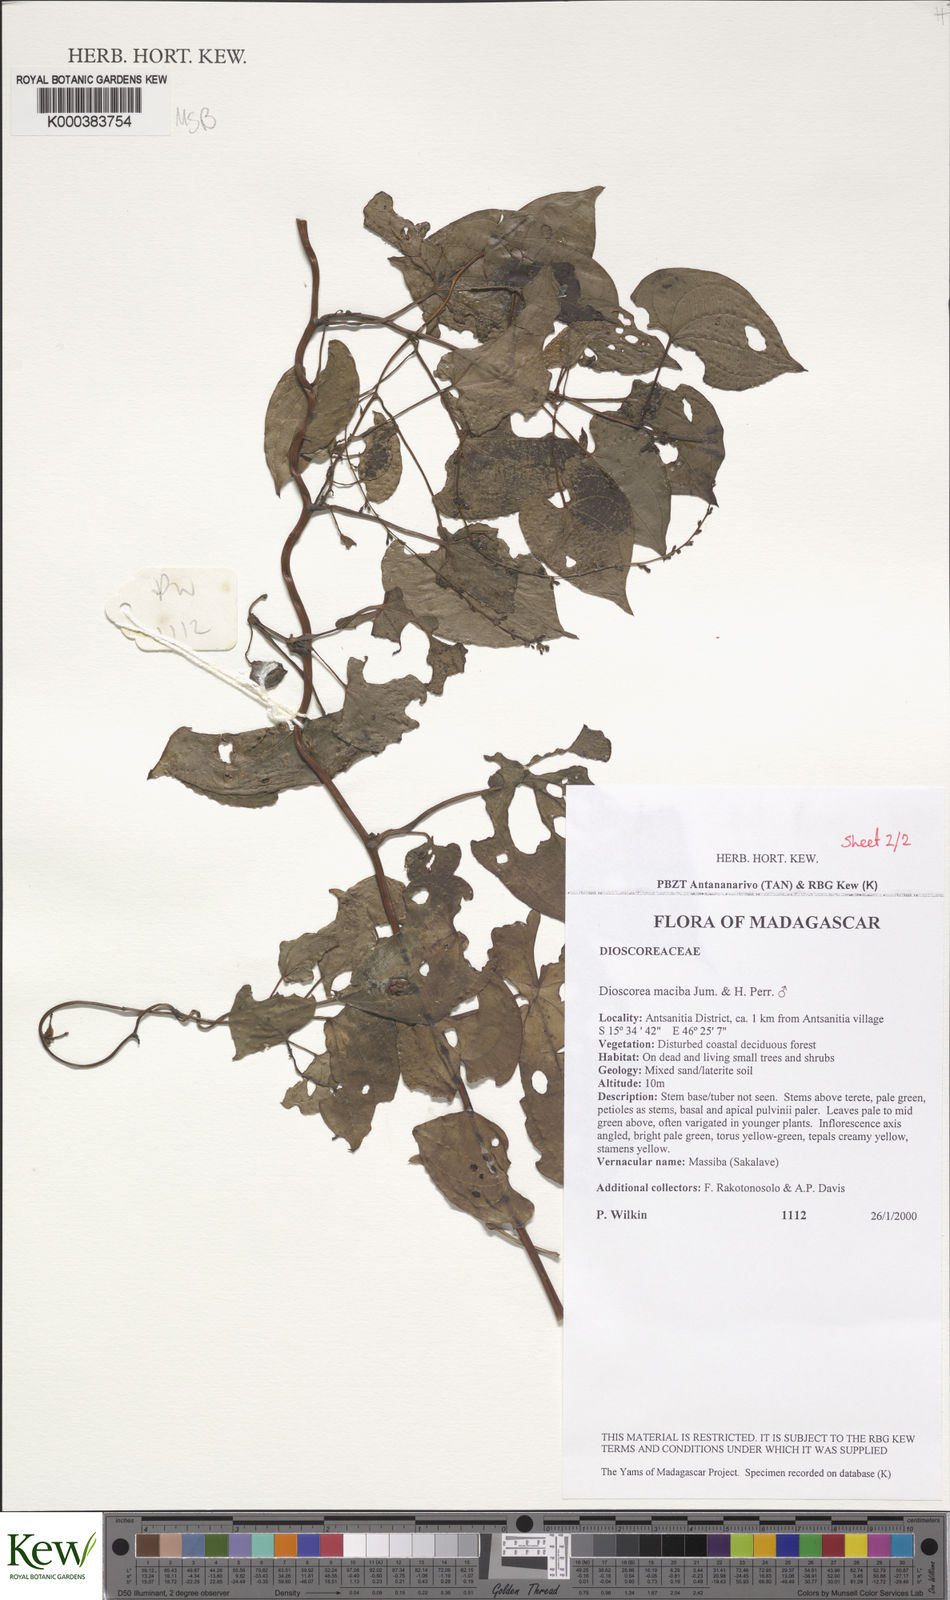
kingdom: Plantae
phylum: Tracheophyta
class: Liliopsida
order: Dioscoreales
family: Dioscoreaceae
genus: Dioscorea
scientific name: Dioscorea
